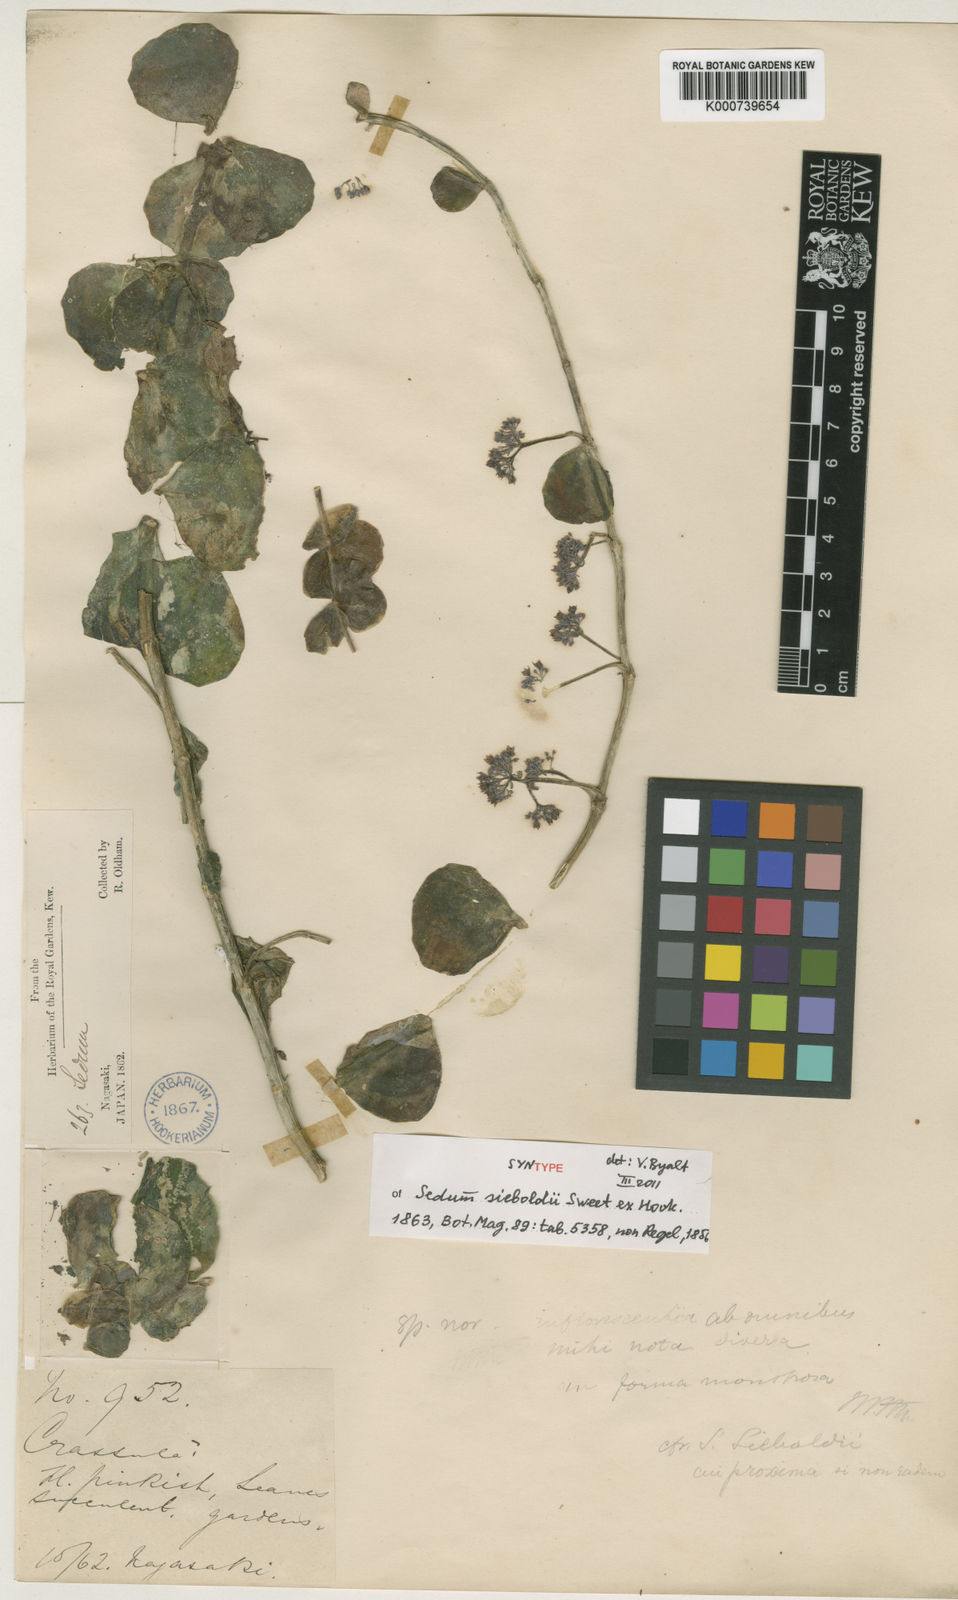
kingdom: Plantae
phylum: Tracheophyta
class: Magnoliopsida
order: Saxifragales
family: Crassulaceae
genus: Sedum
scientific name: Sedum
